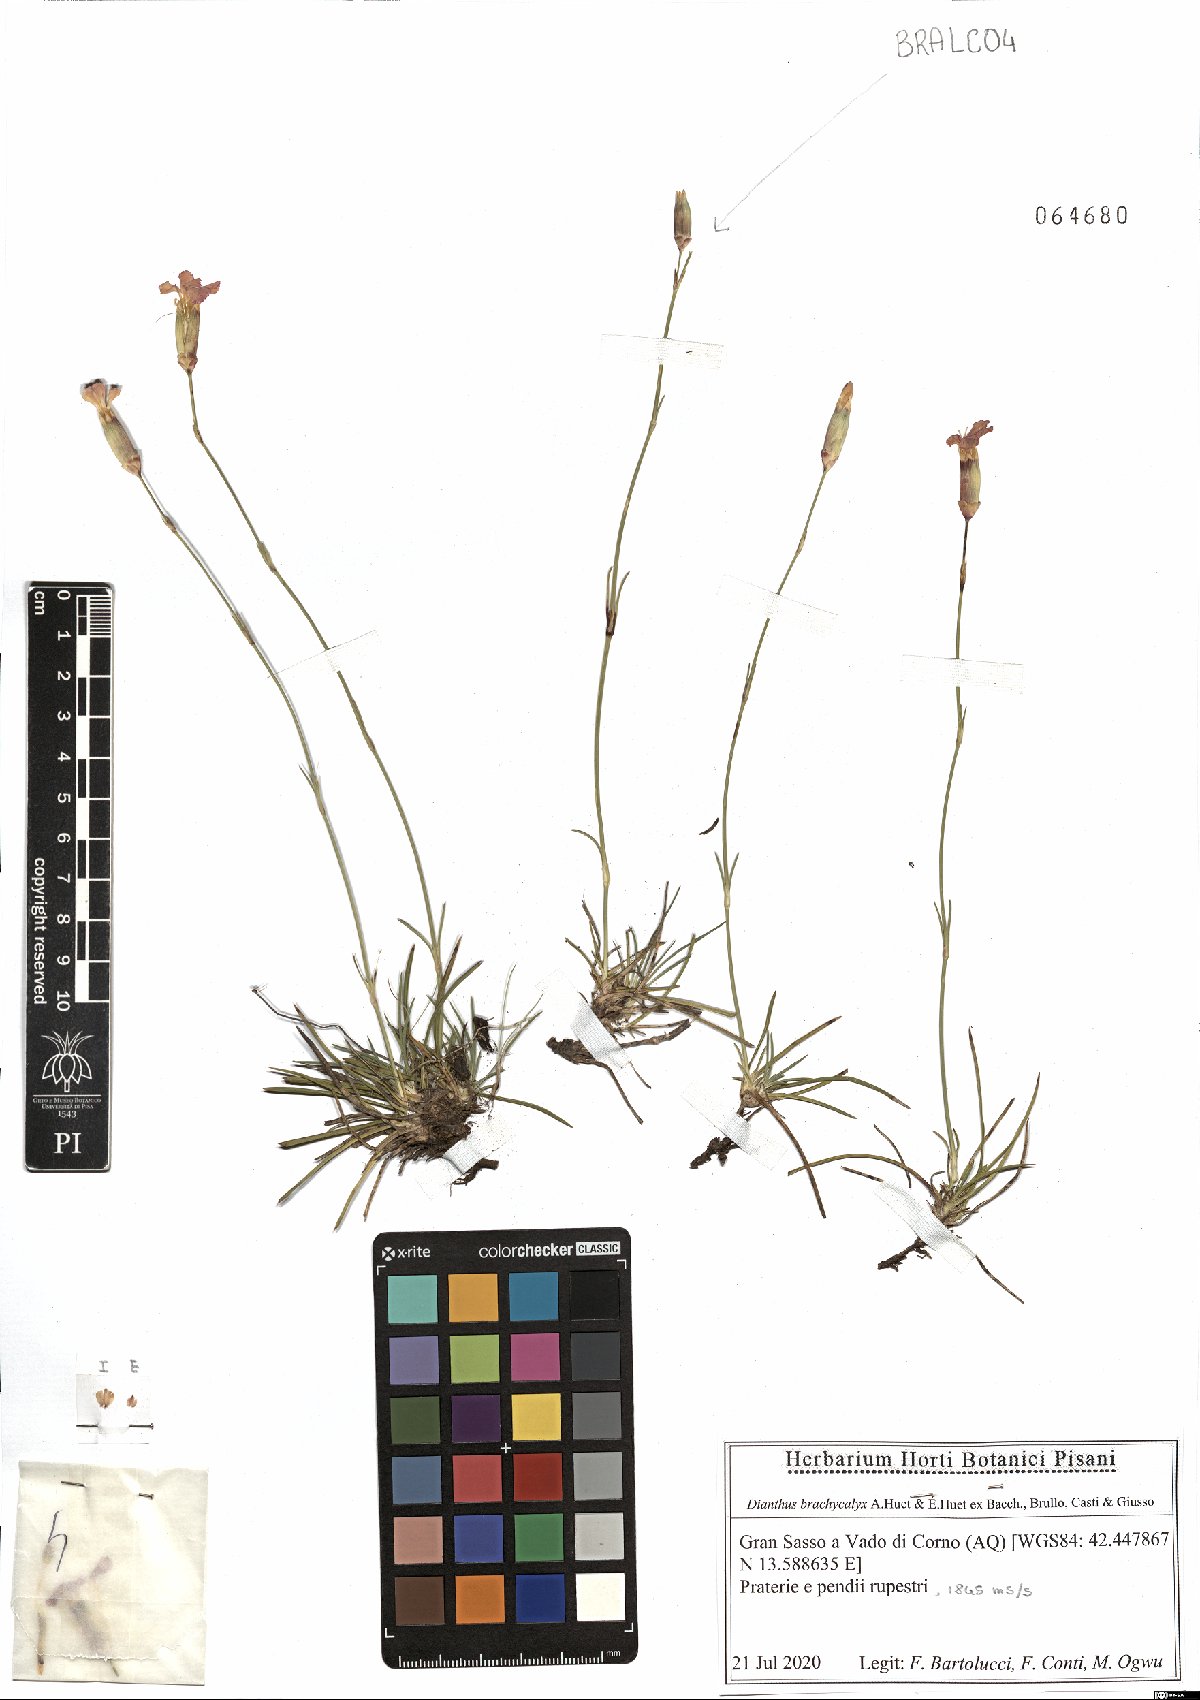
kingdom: Plantae
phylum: Tracheophyta
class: Magnoliopsida
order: Caryophyllales
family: Caryophyllaceae
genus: Dianthus
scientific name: Dianthus brachycalyx
